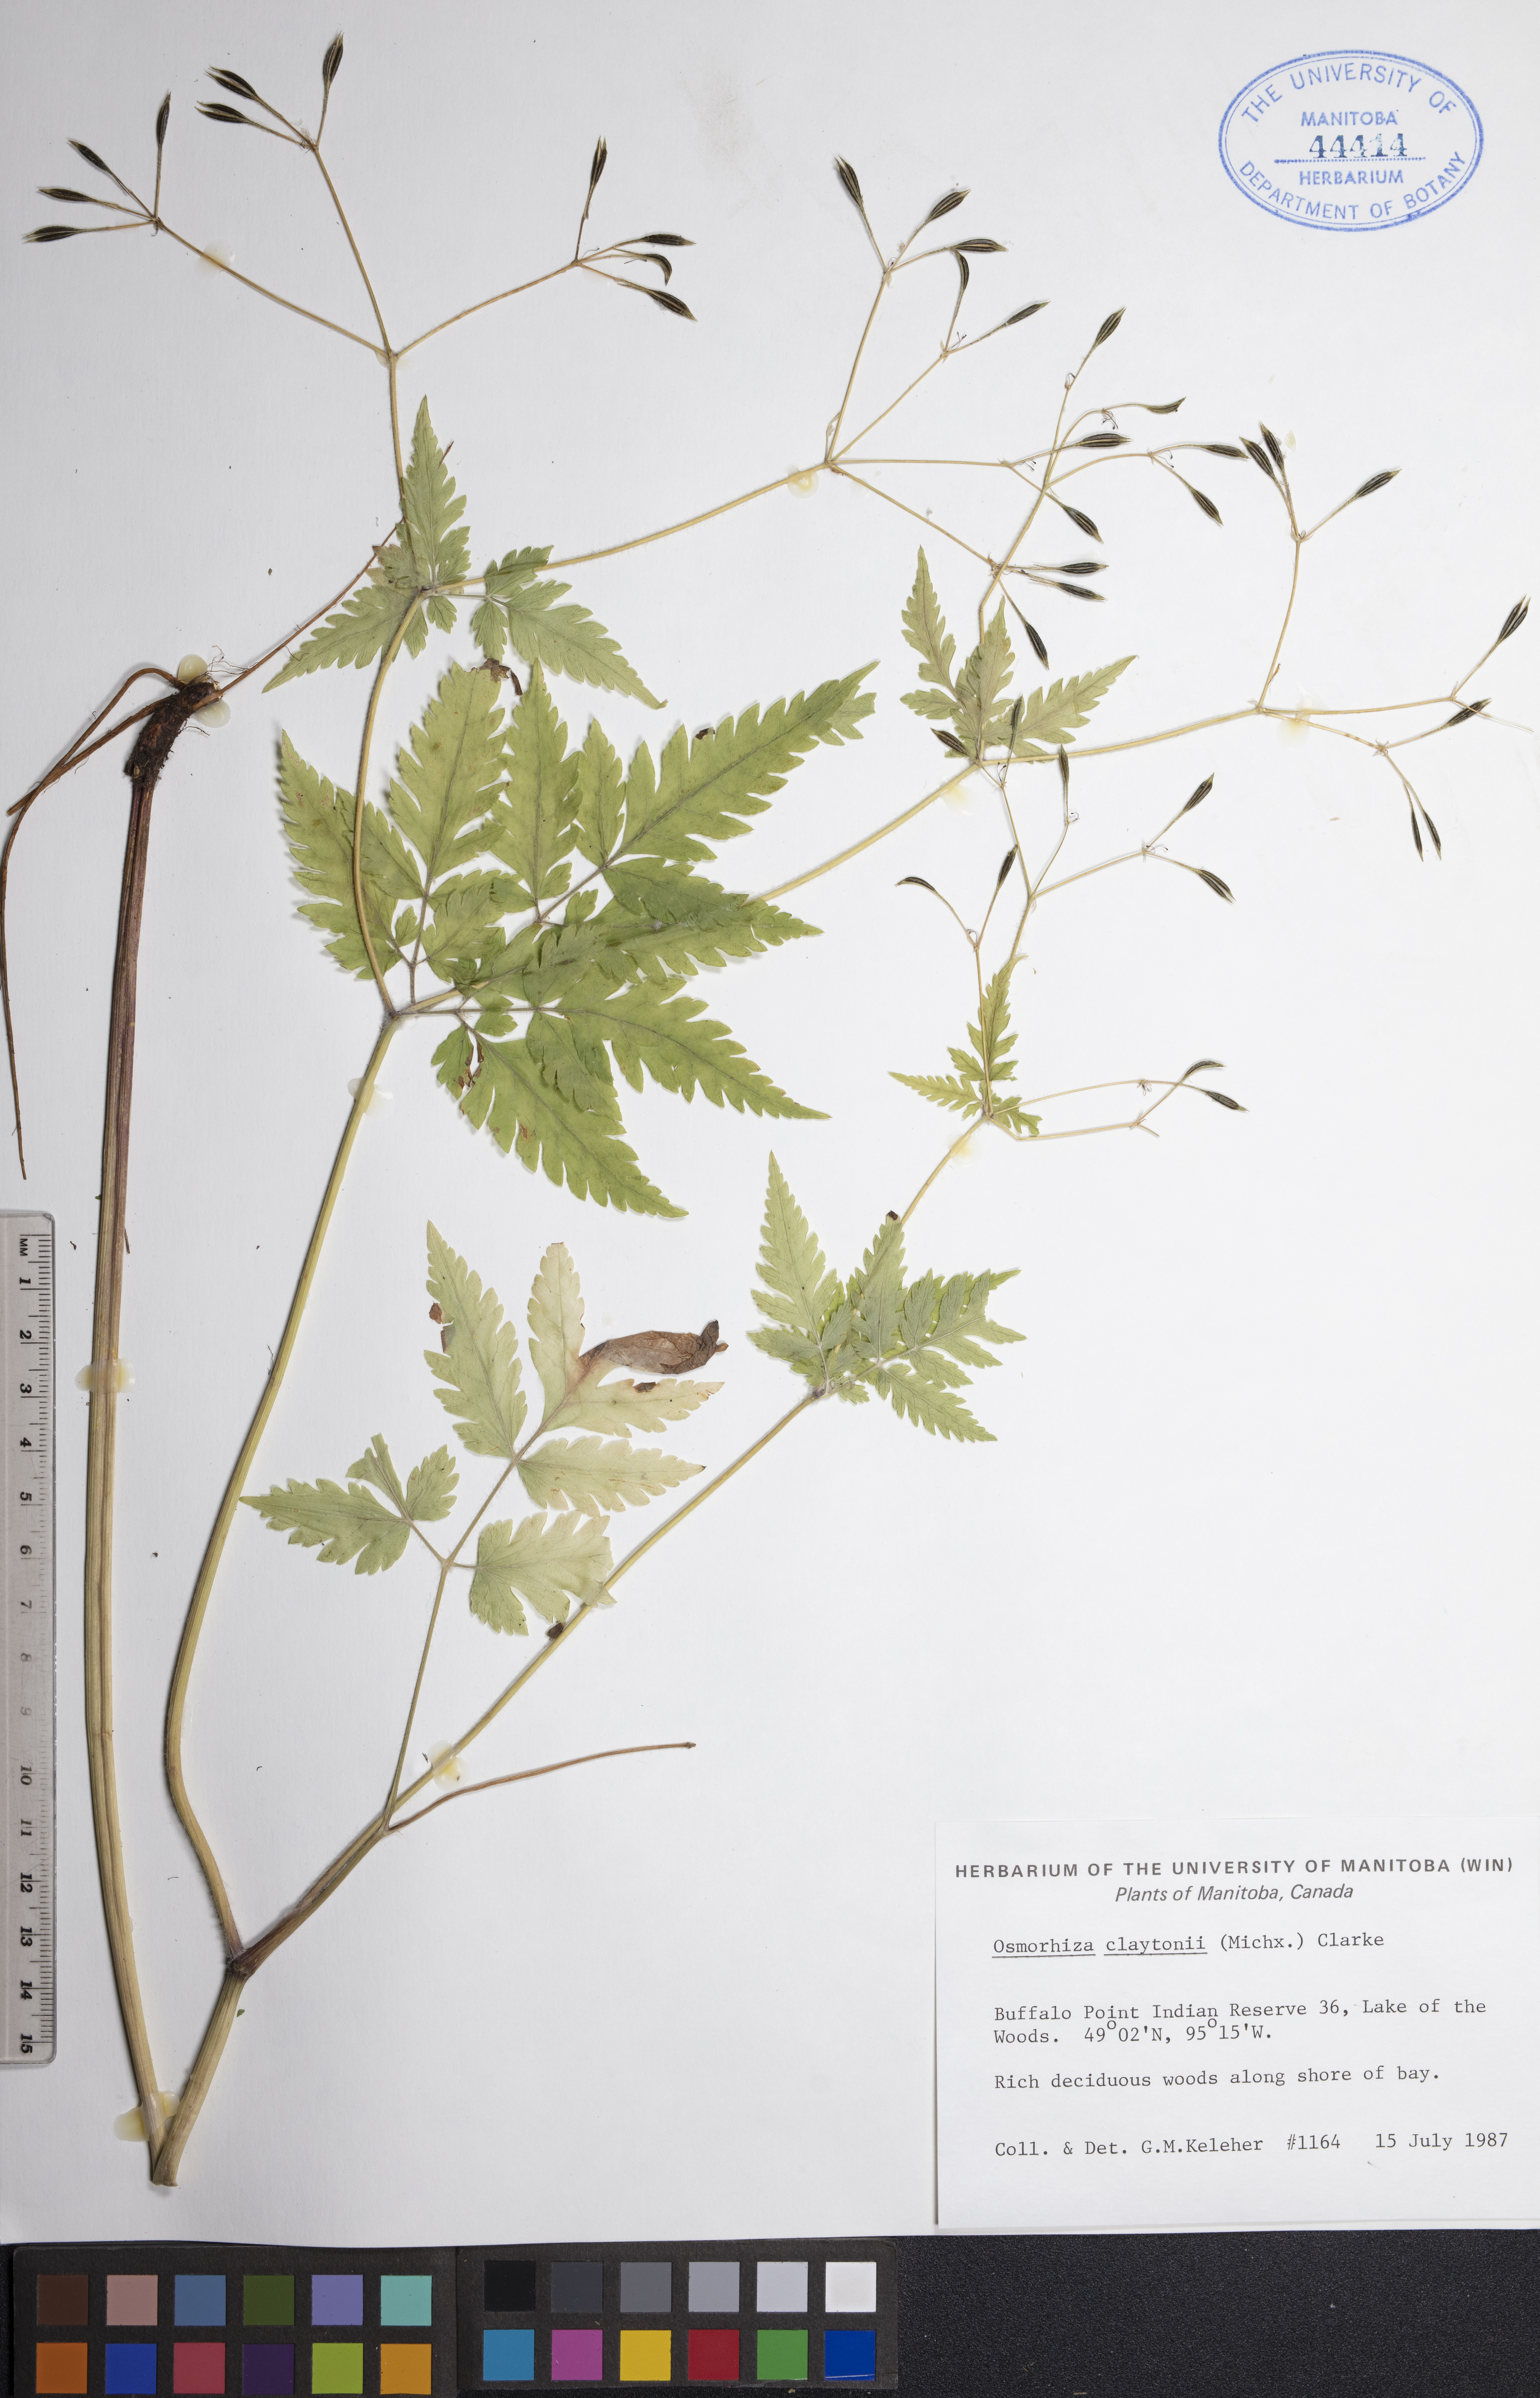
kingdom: Plantae
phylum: Tracheophyta
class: Magnoliopsida
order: Apiales
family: Apiaceae
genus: Osmorhiza
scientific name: Osmorhiza claytonii
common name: Hairy sweet cicely
